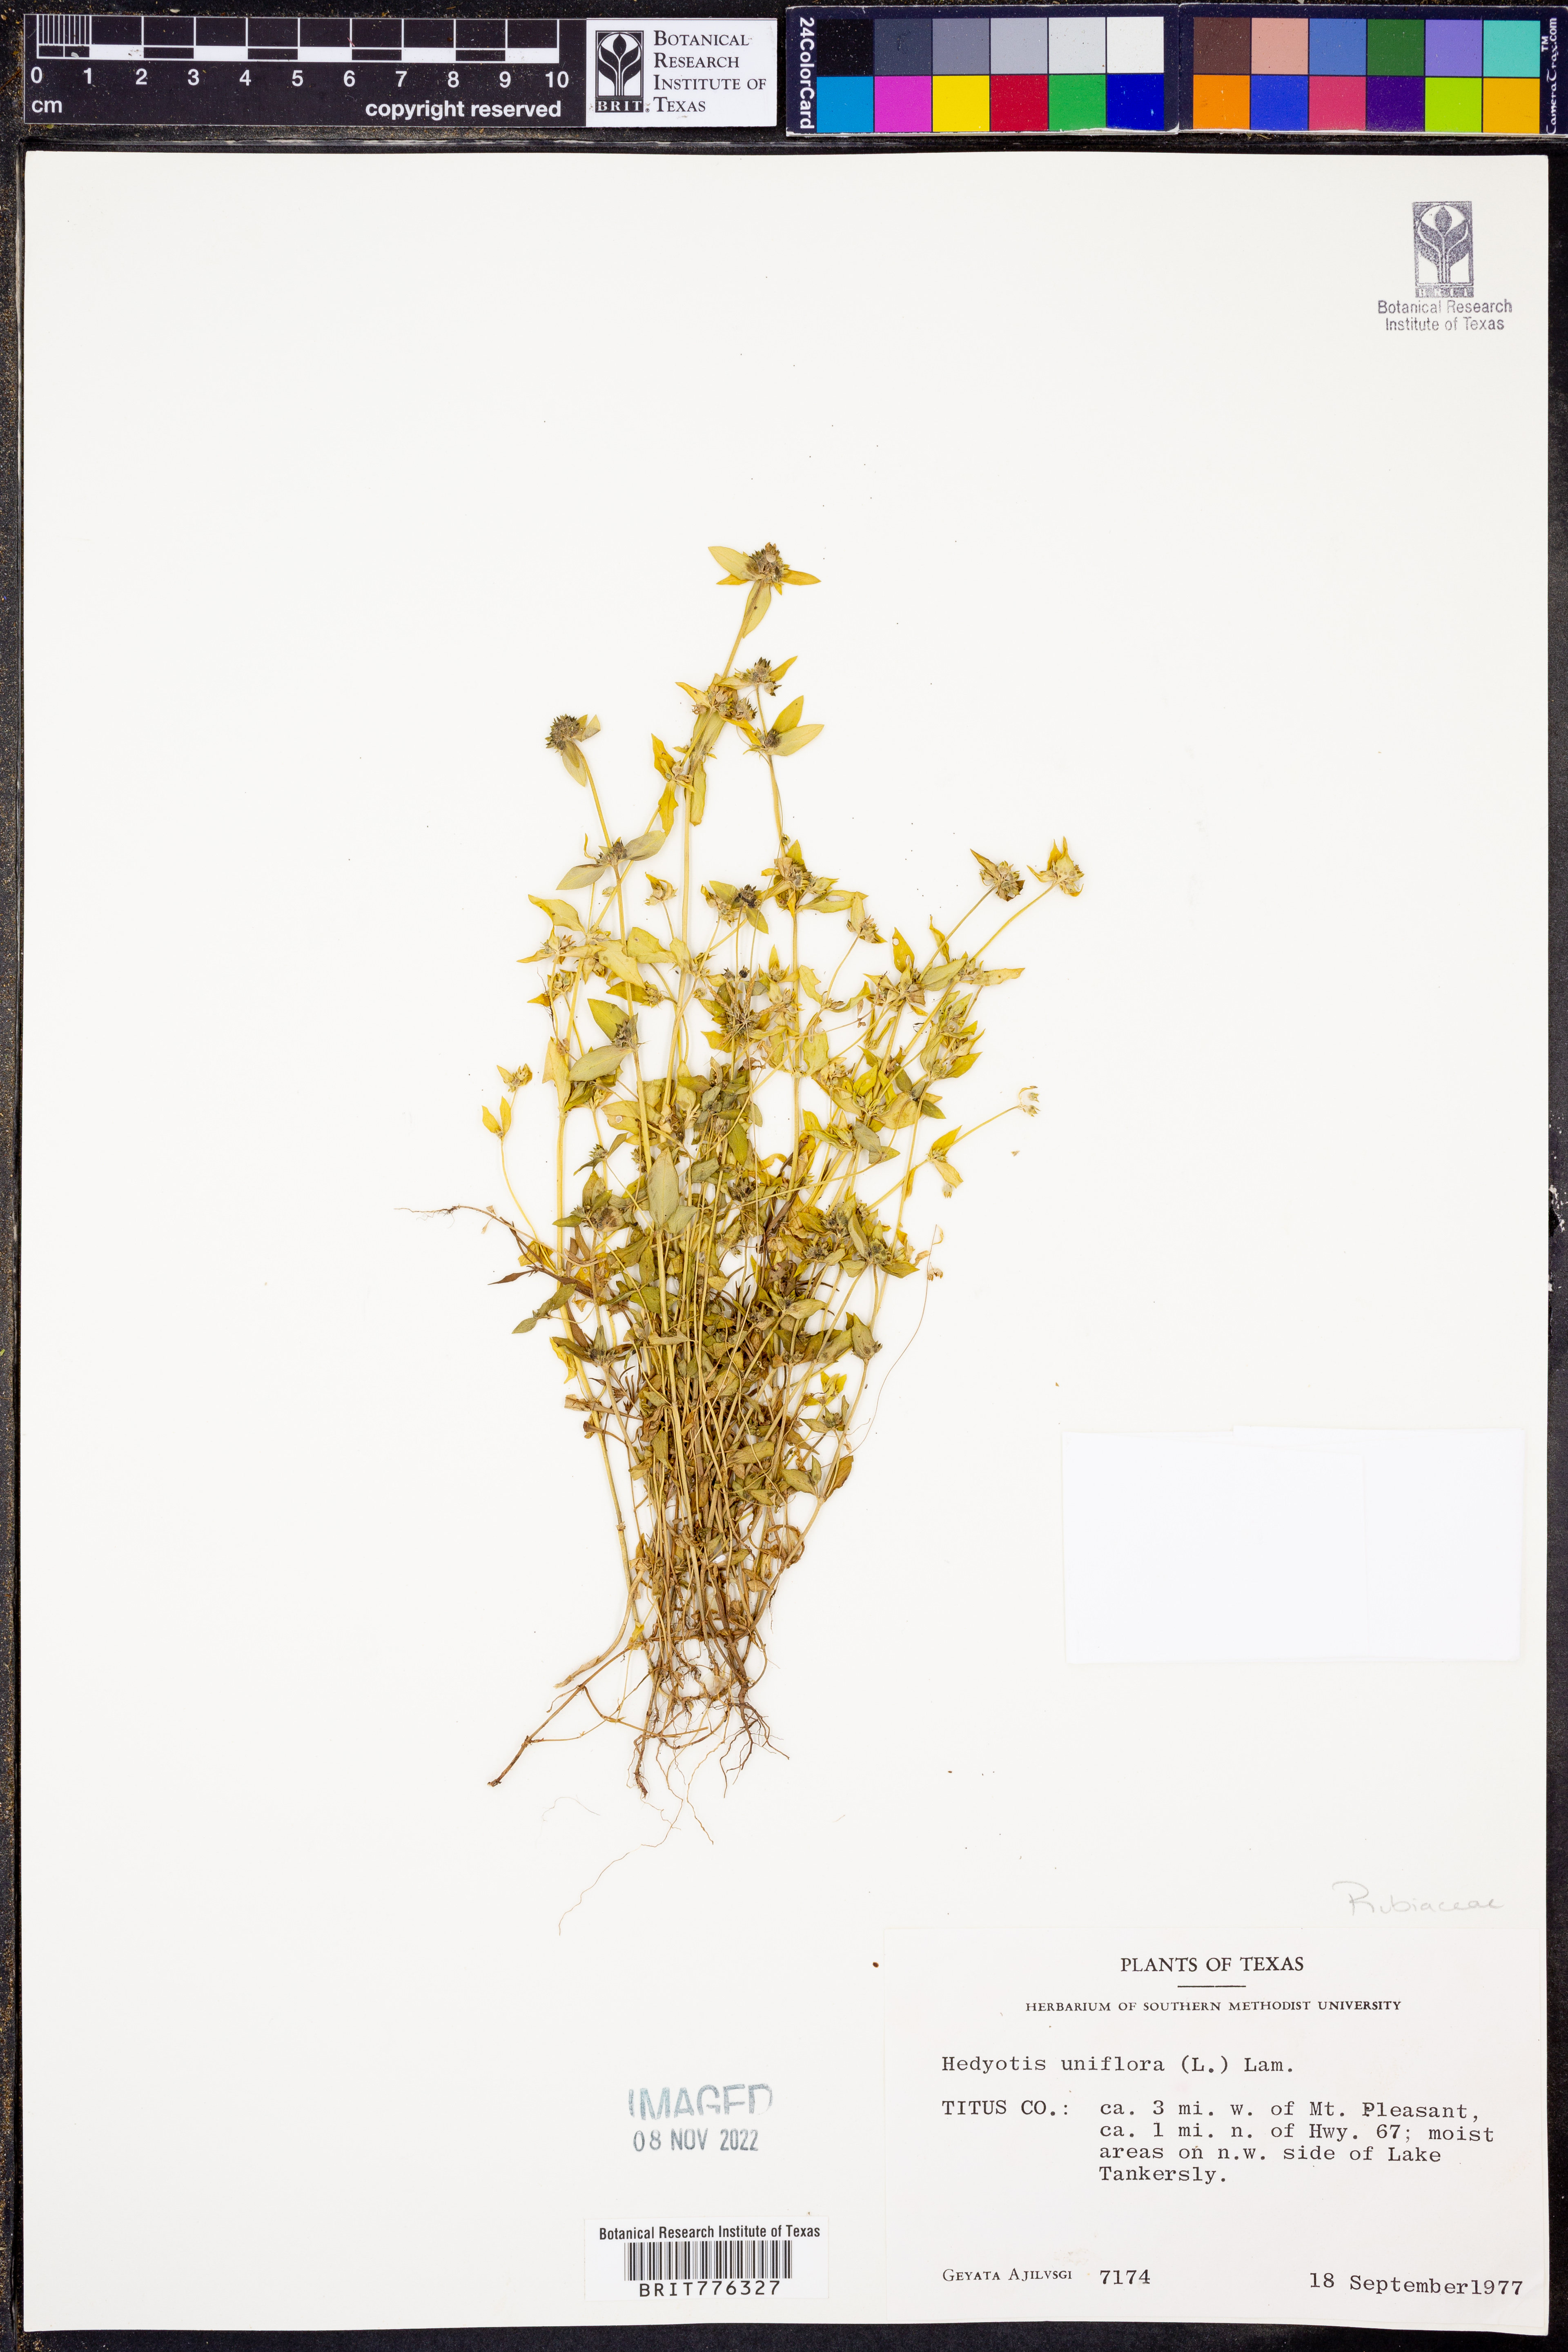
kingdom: Plantae
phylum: Tracheophyta
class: Magnoliopsida
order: Gentianales
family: Rubiaceae
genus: Edrastima
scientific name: Edrastima uniflora
